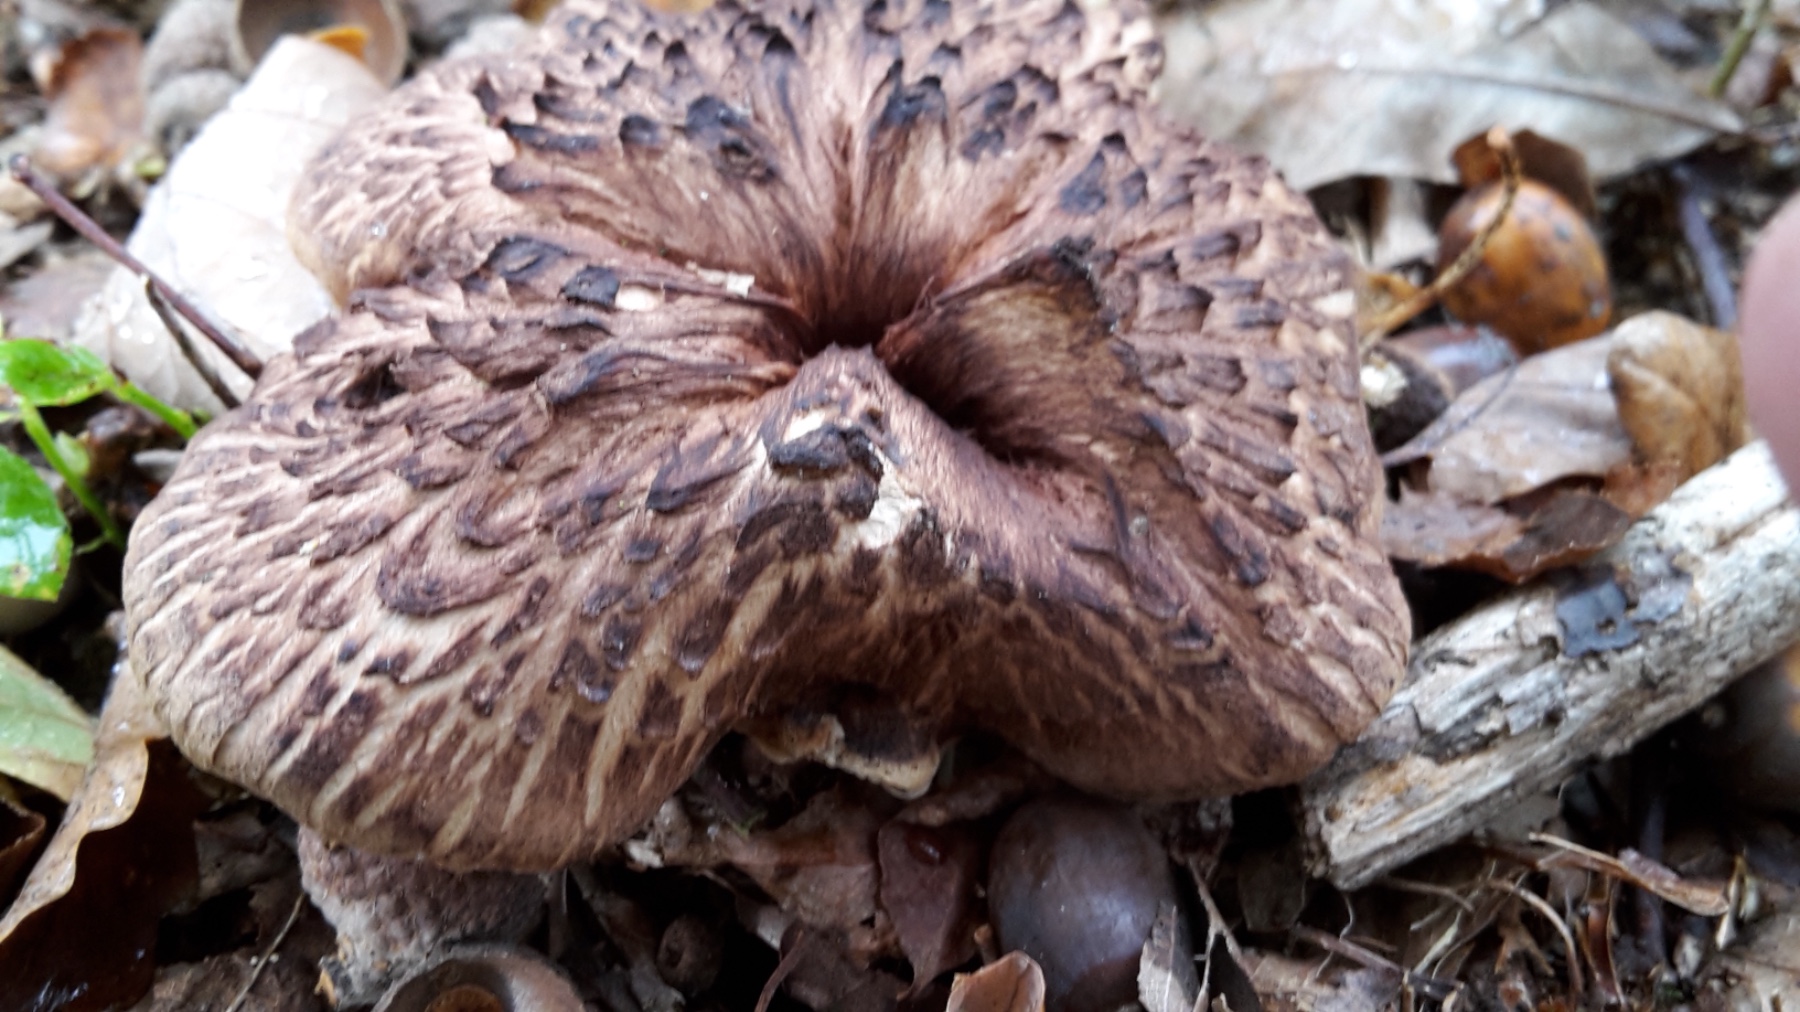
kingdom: Fungi
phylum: Basidiomycota
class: Agaricomycetes
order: Thelephorales
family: Bankeraceae
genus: Hydnellum
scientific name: Hydnellum fagiscabrosum
